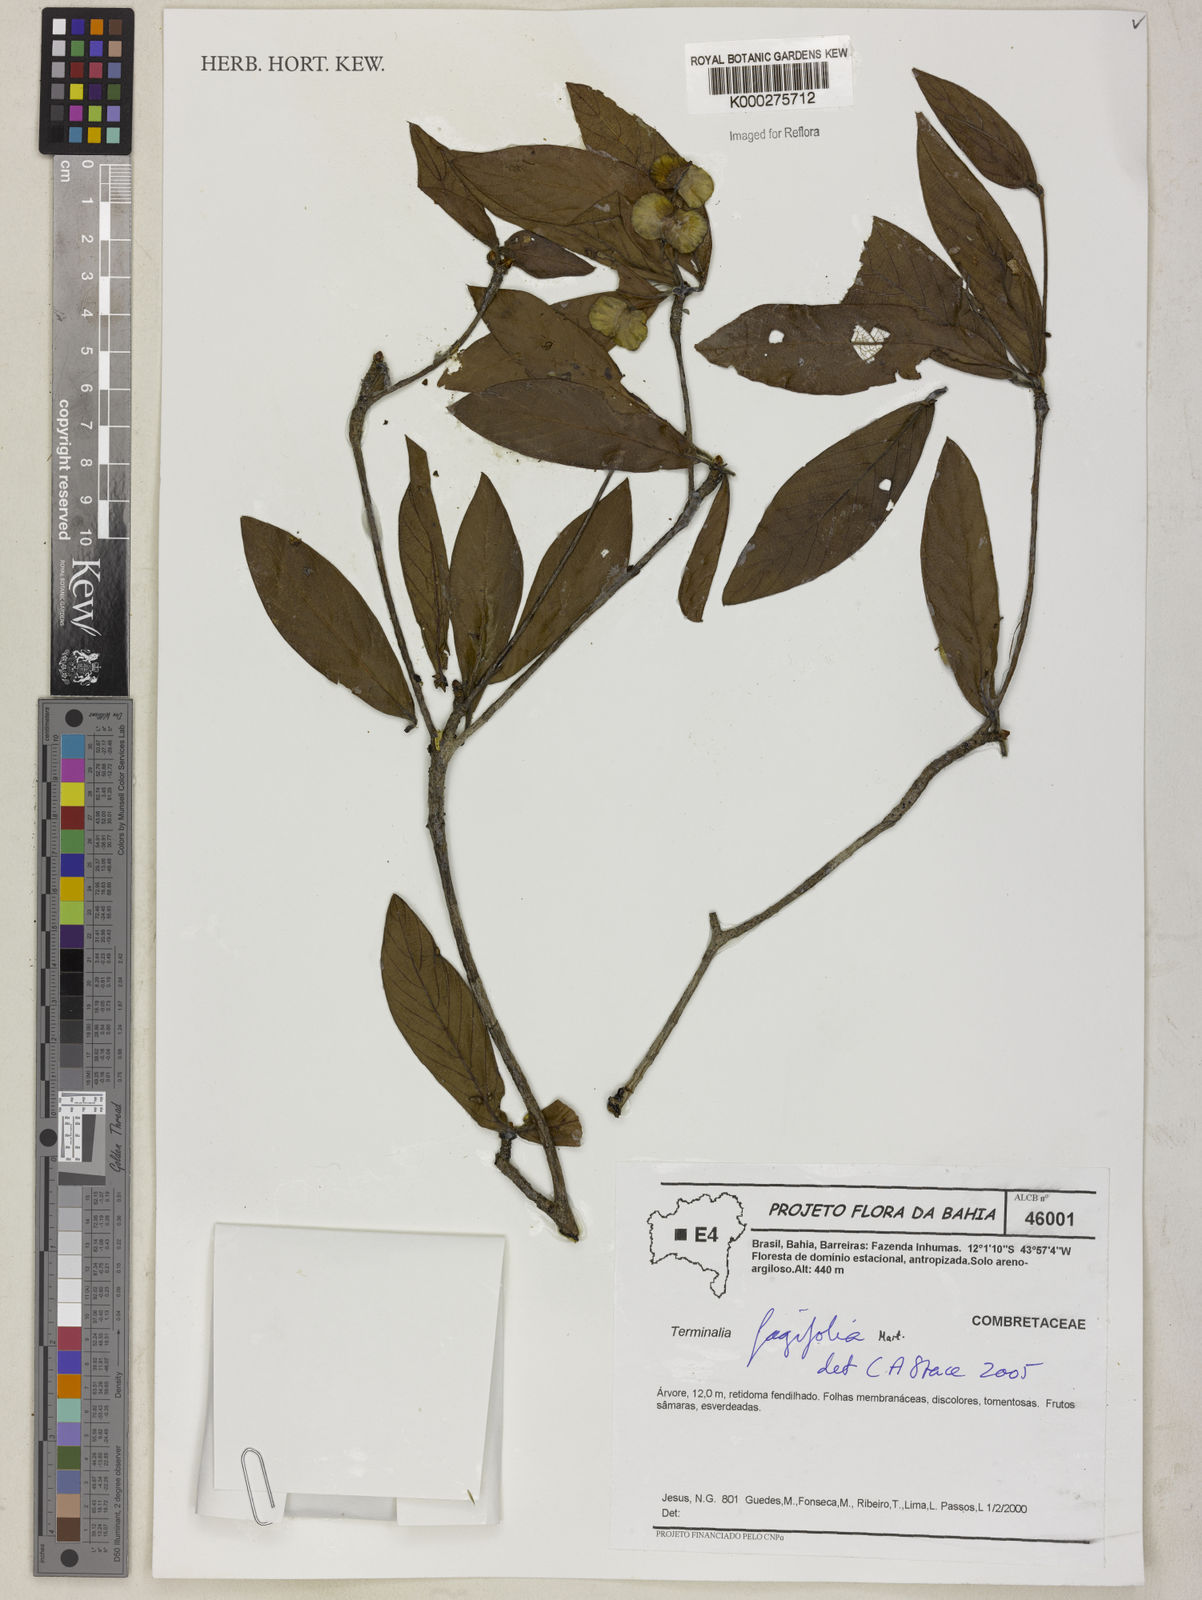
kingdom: Plantae
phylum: Tracheophyta
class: Magnoliopsida
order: Myrtales
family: Combretaceae
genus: Terminalia
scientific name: Terminalia fagifolia
